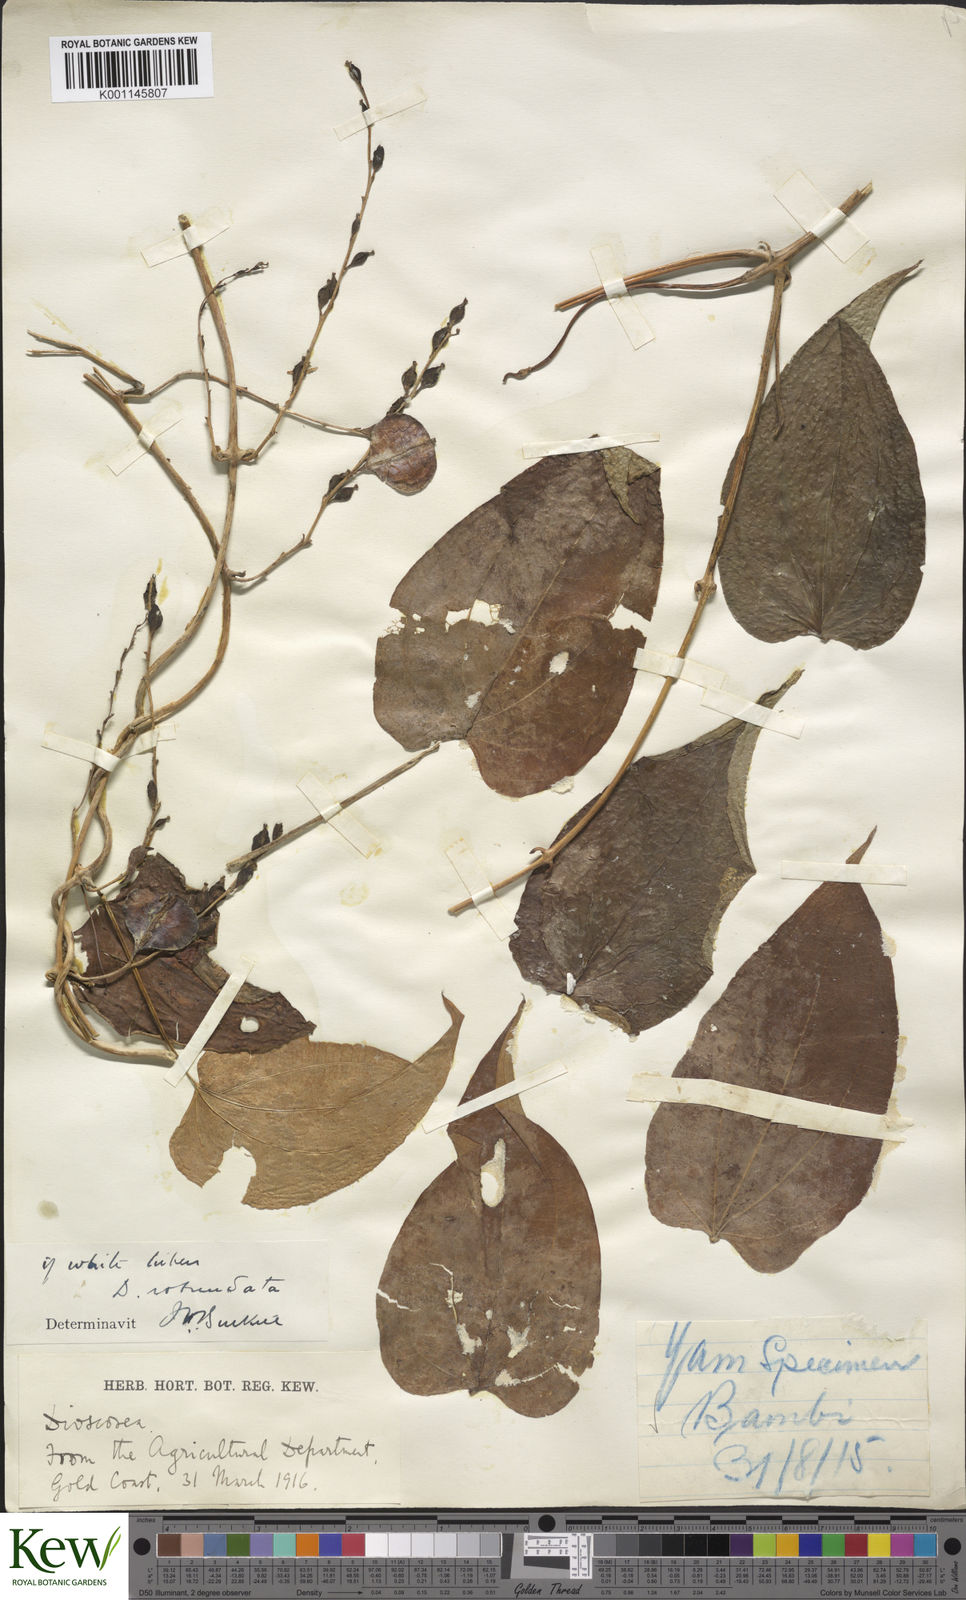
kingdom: Plantae
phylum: Tracheophyta
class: Liliopsida
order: Dioscoreales
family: Dioscoreaceae
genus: Dioscorea
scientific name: Dioscorea cayenensis
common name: Attoto yam
